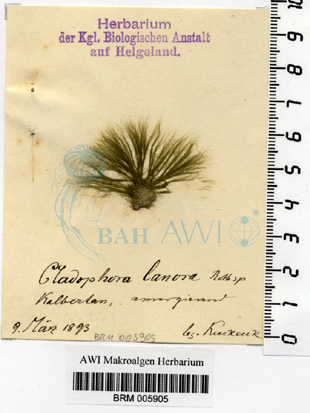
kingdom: Plantae
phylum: Chlorophyta
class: Ulvophyceae
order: Ulotrichales
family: Ulotrichaceae
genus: Acrosiphonia
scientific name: Acrosiphonia arcta
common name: Green tarantula weed
